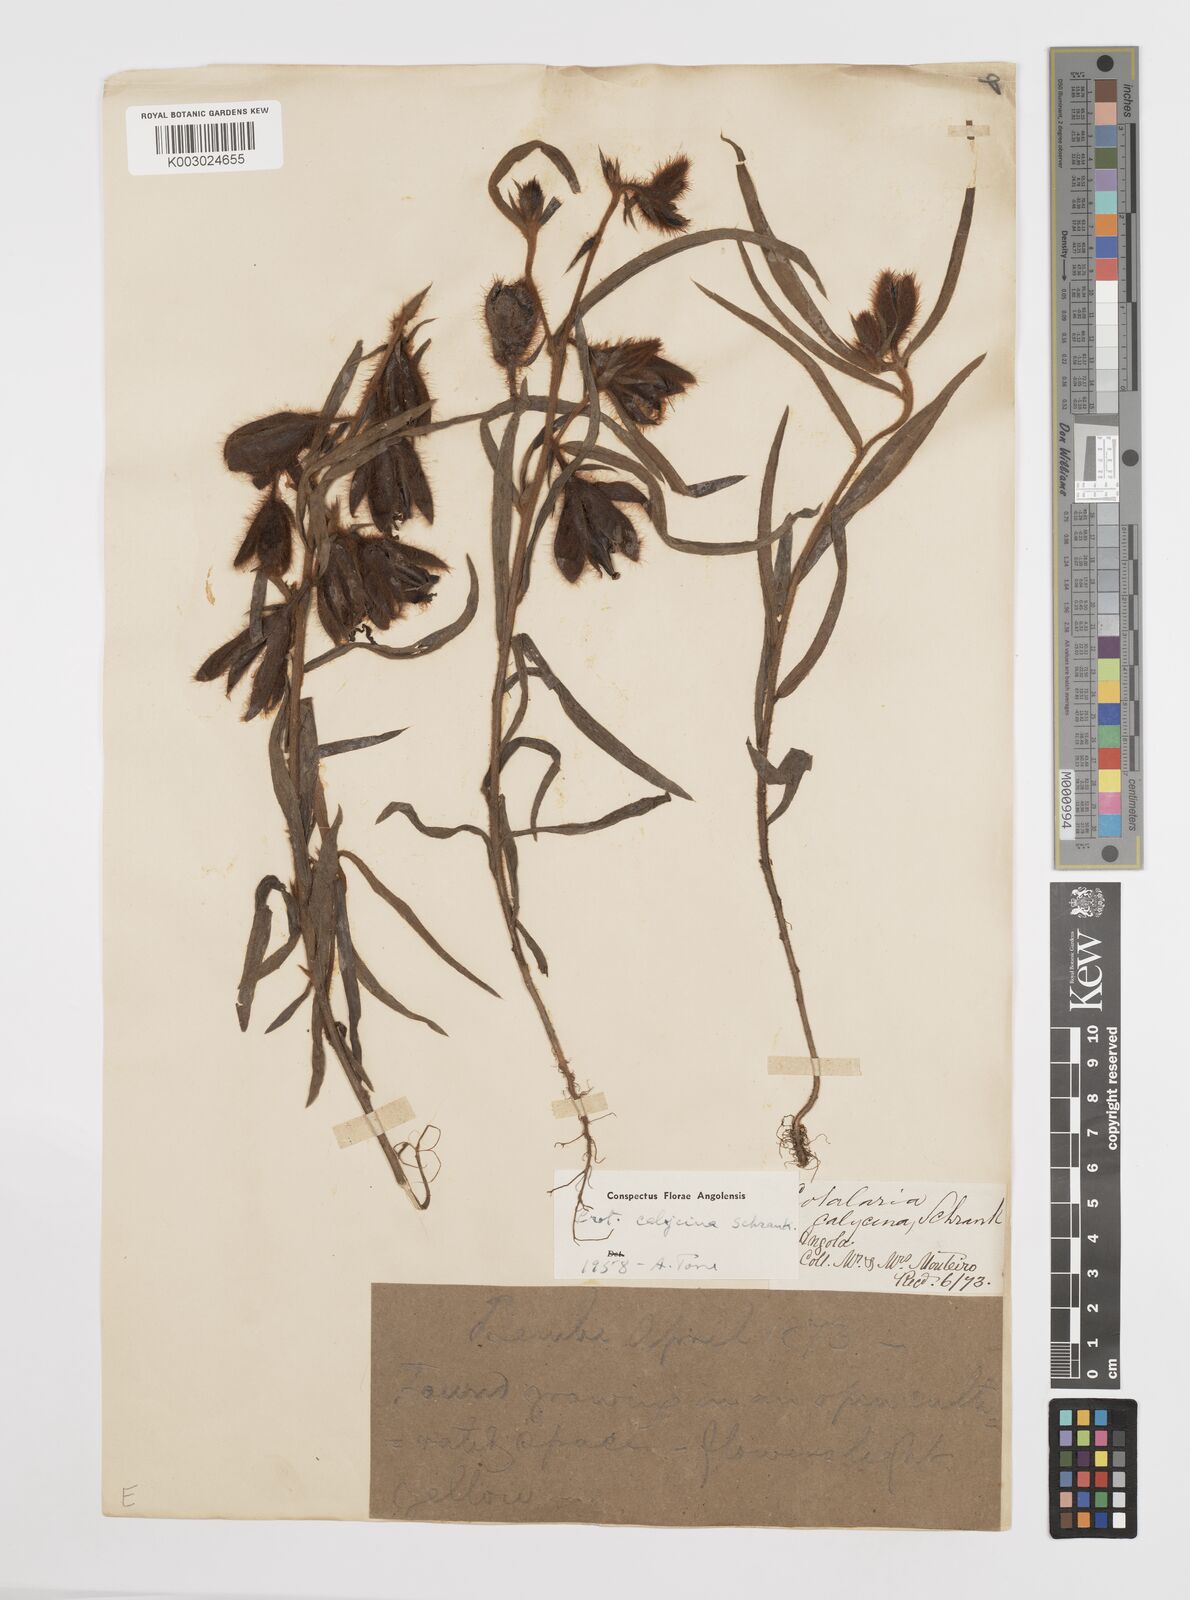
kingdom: Plantae
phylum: Tracheophyta
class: Magnoliopsida
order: Fabales
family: Fabaceae
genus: Crotalaria
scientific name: Crotalaria calycina
